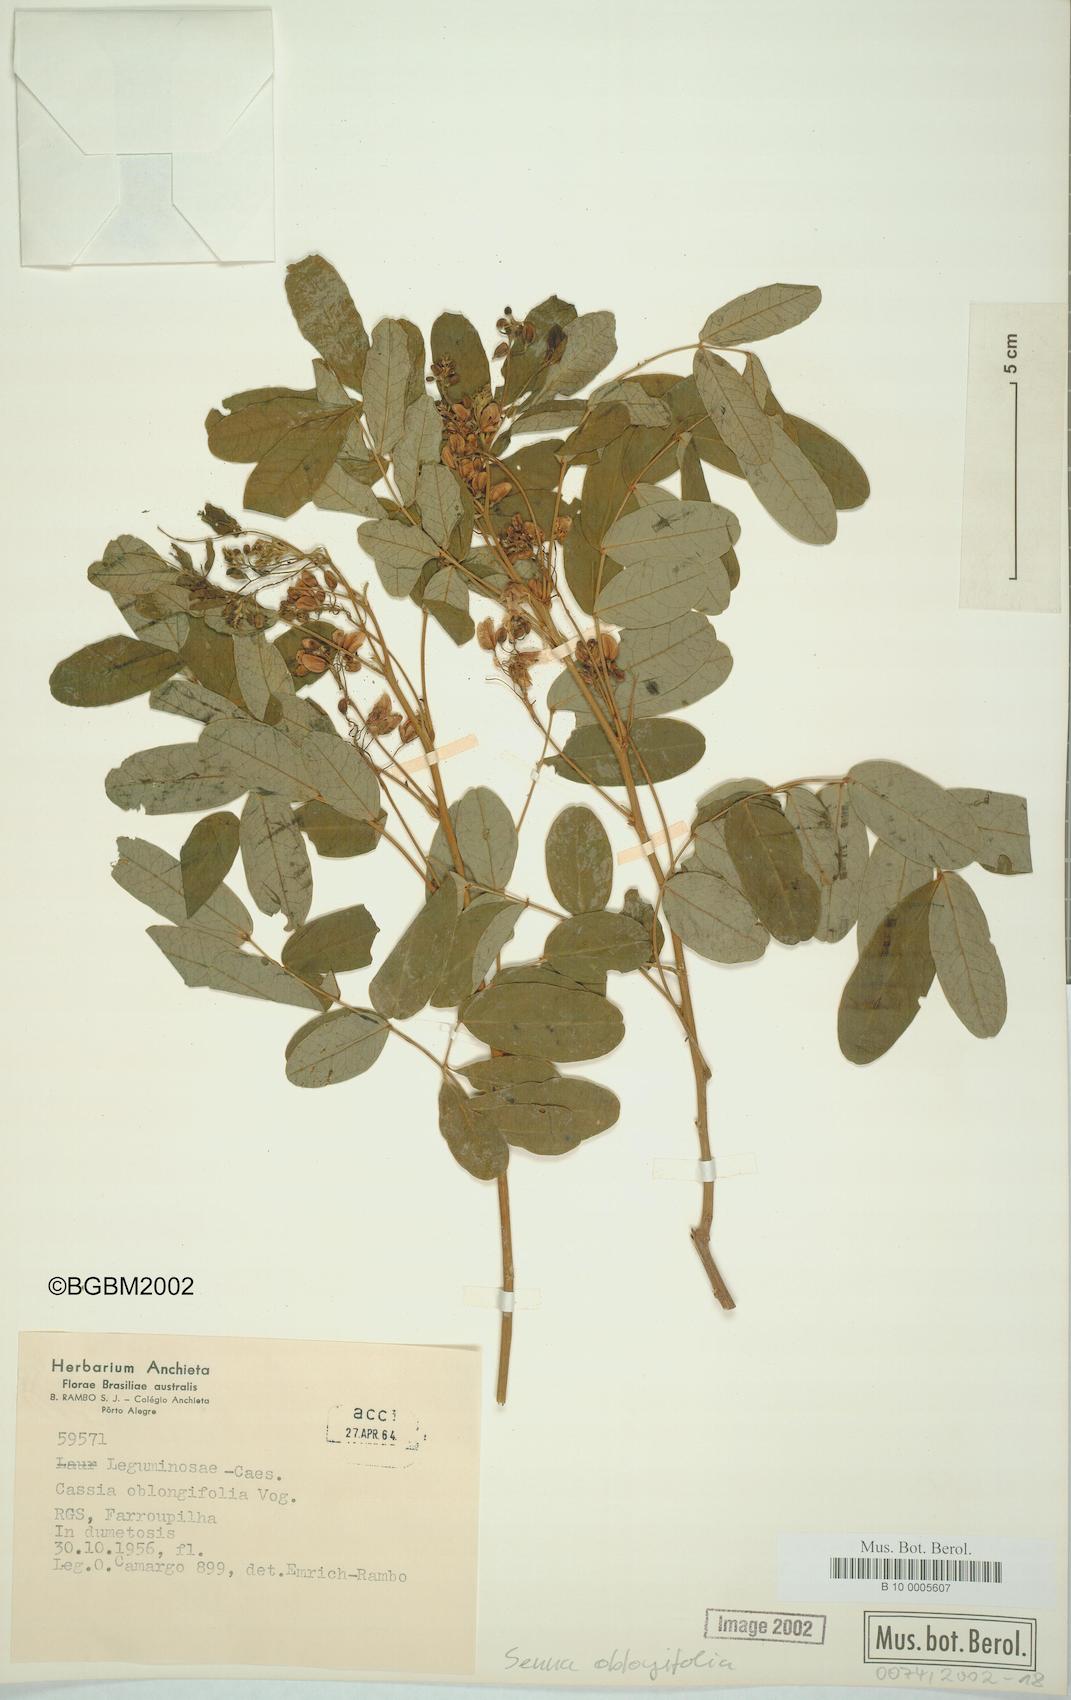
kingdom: Plantae
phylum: Tracheophyta
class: Magnoliopsida
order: Fabales
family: Fabaceae
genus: Senna
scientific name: Senna oblongifolia
